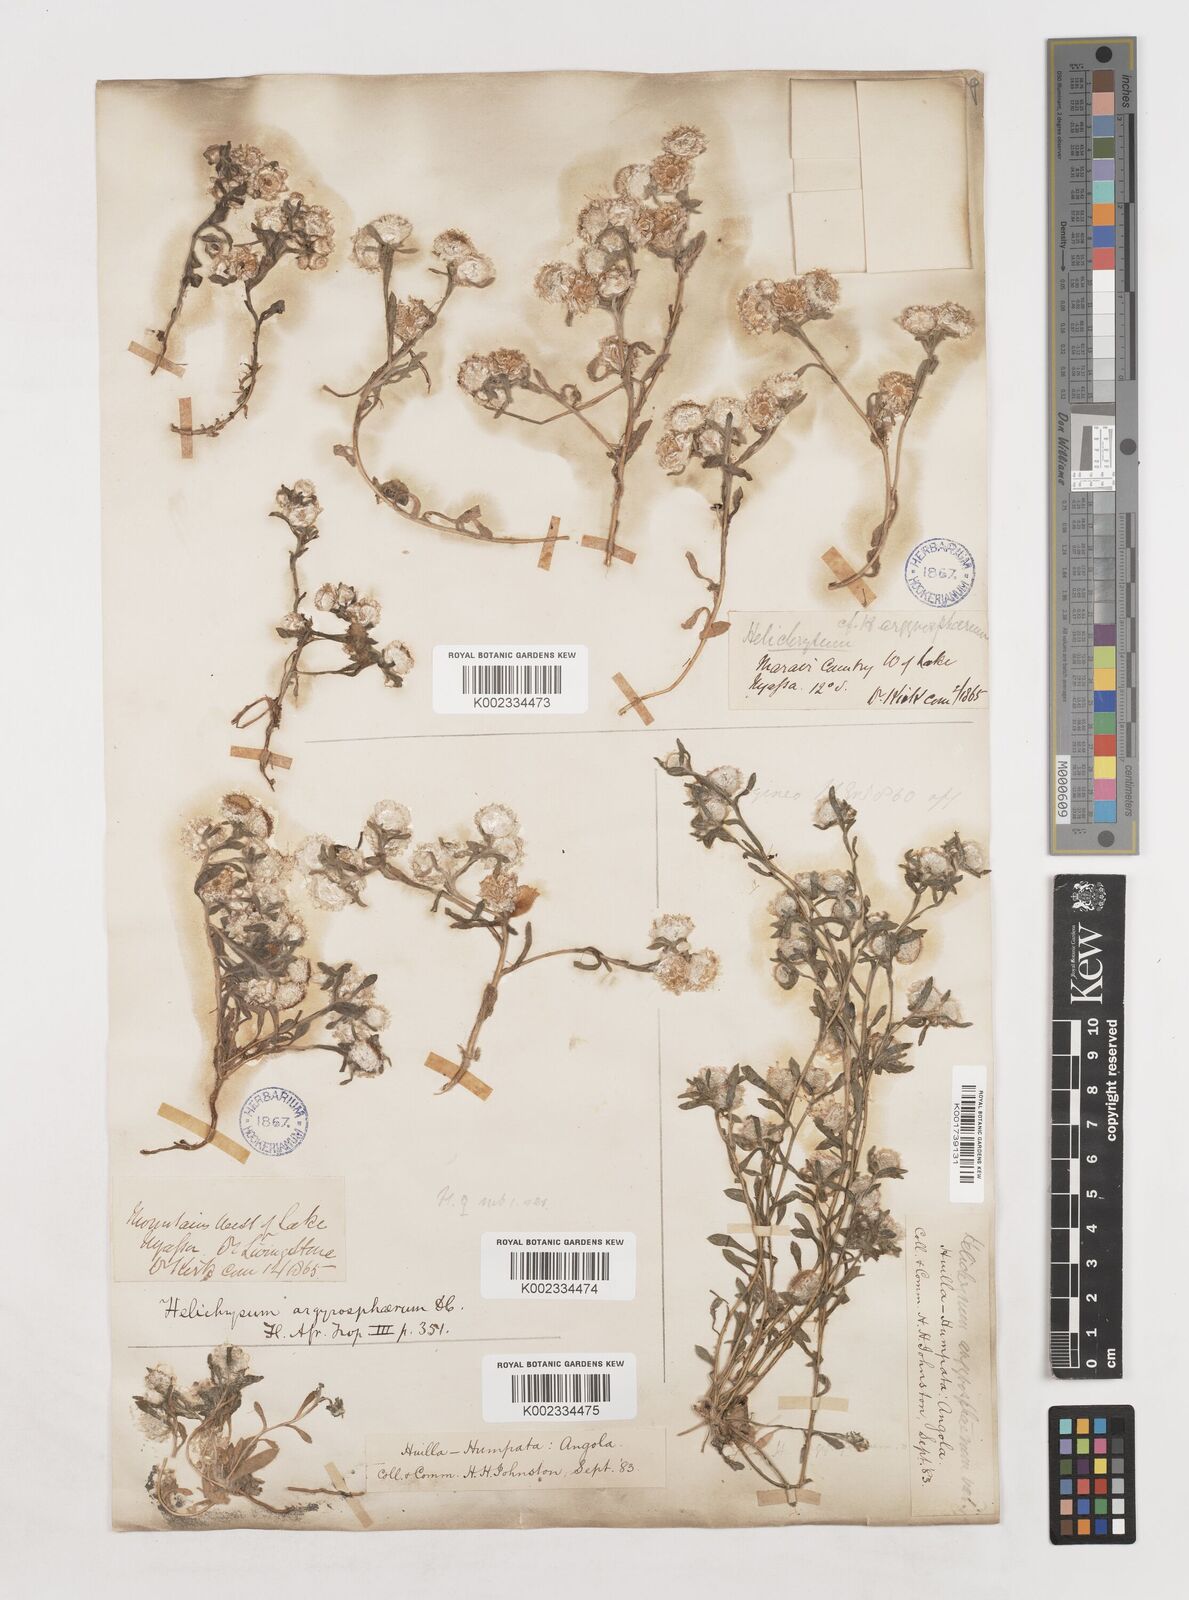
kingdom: Plantae
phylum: Tracheophyta
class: Magnoliopsida
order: Asterales
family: Asteraceae
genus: Helichrysum
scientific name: Helichrysum argyrosphaerum
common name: Wild everlasting
